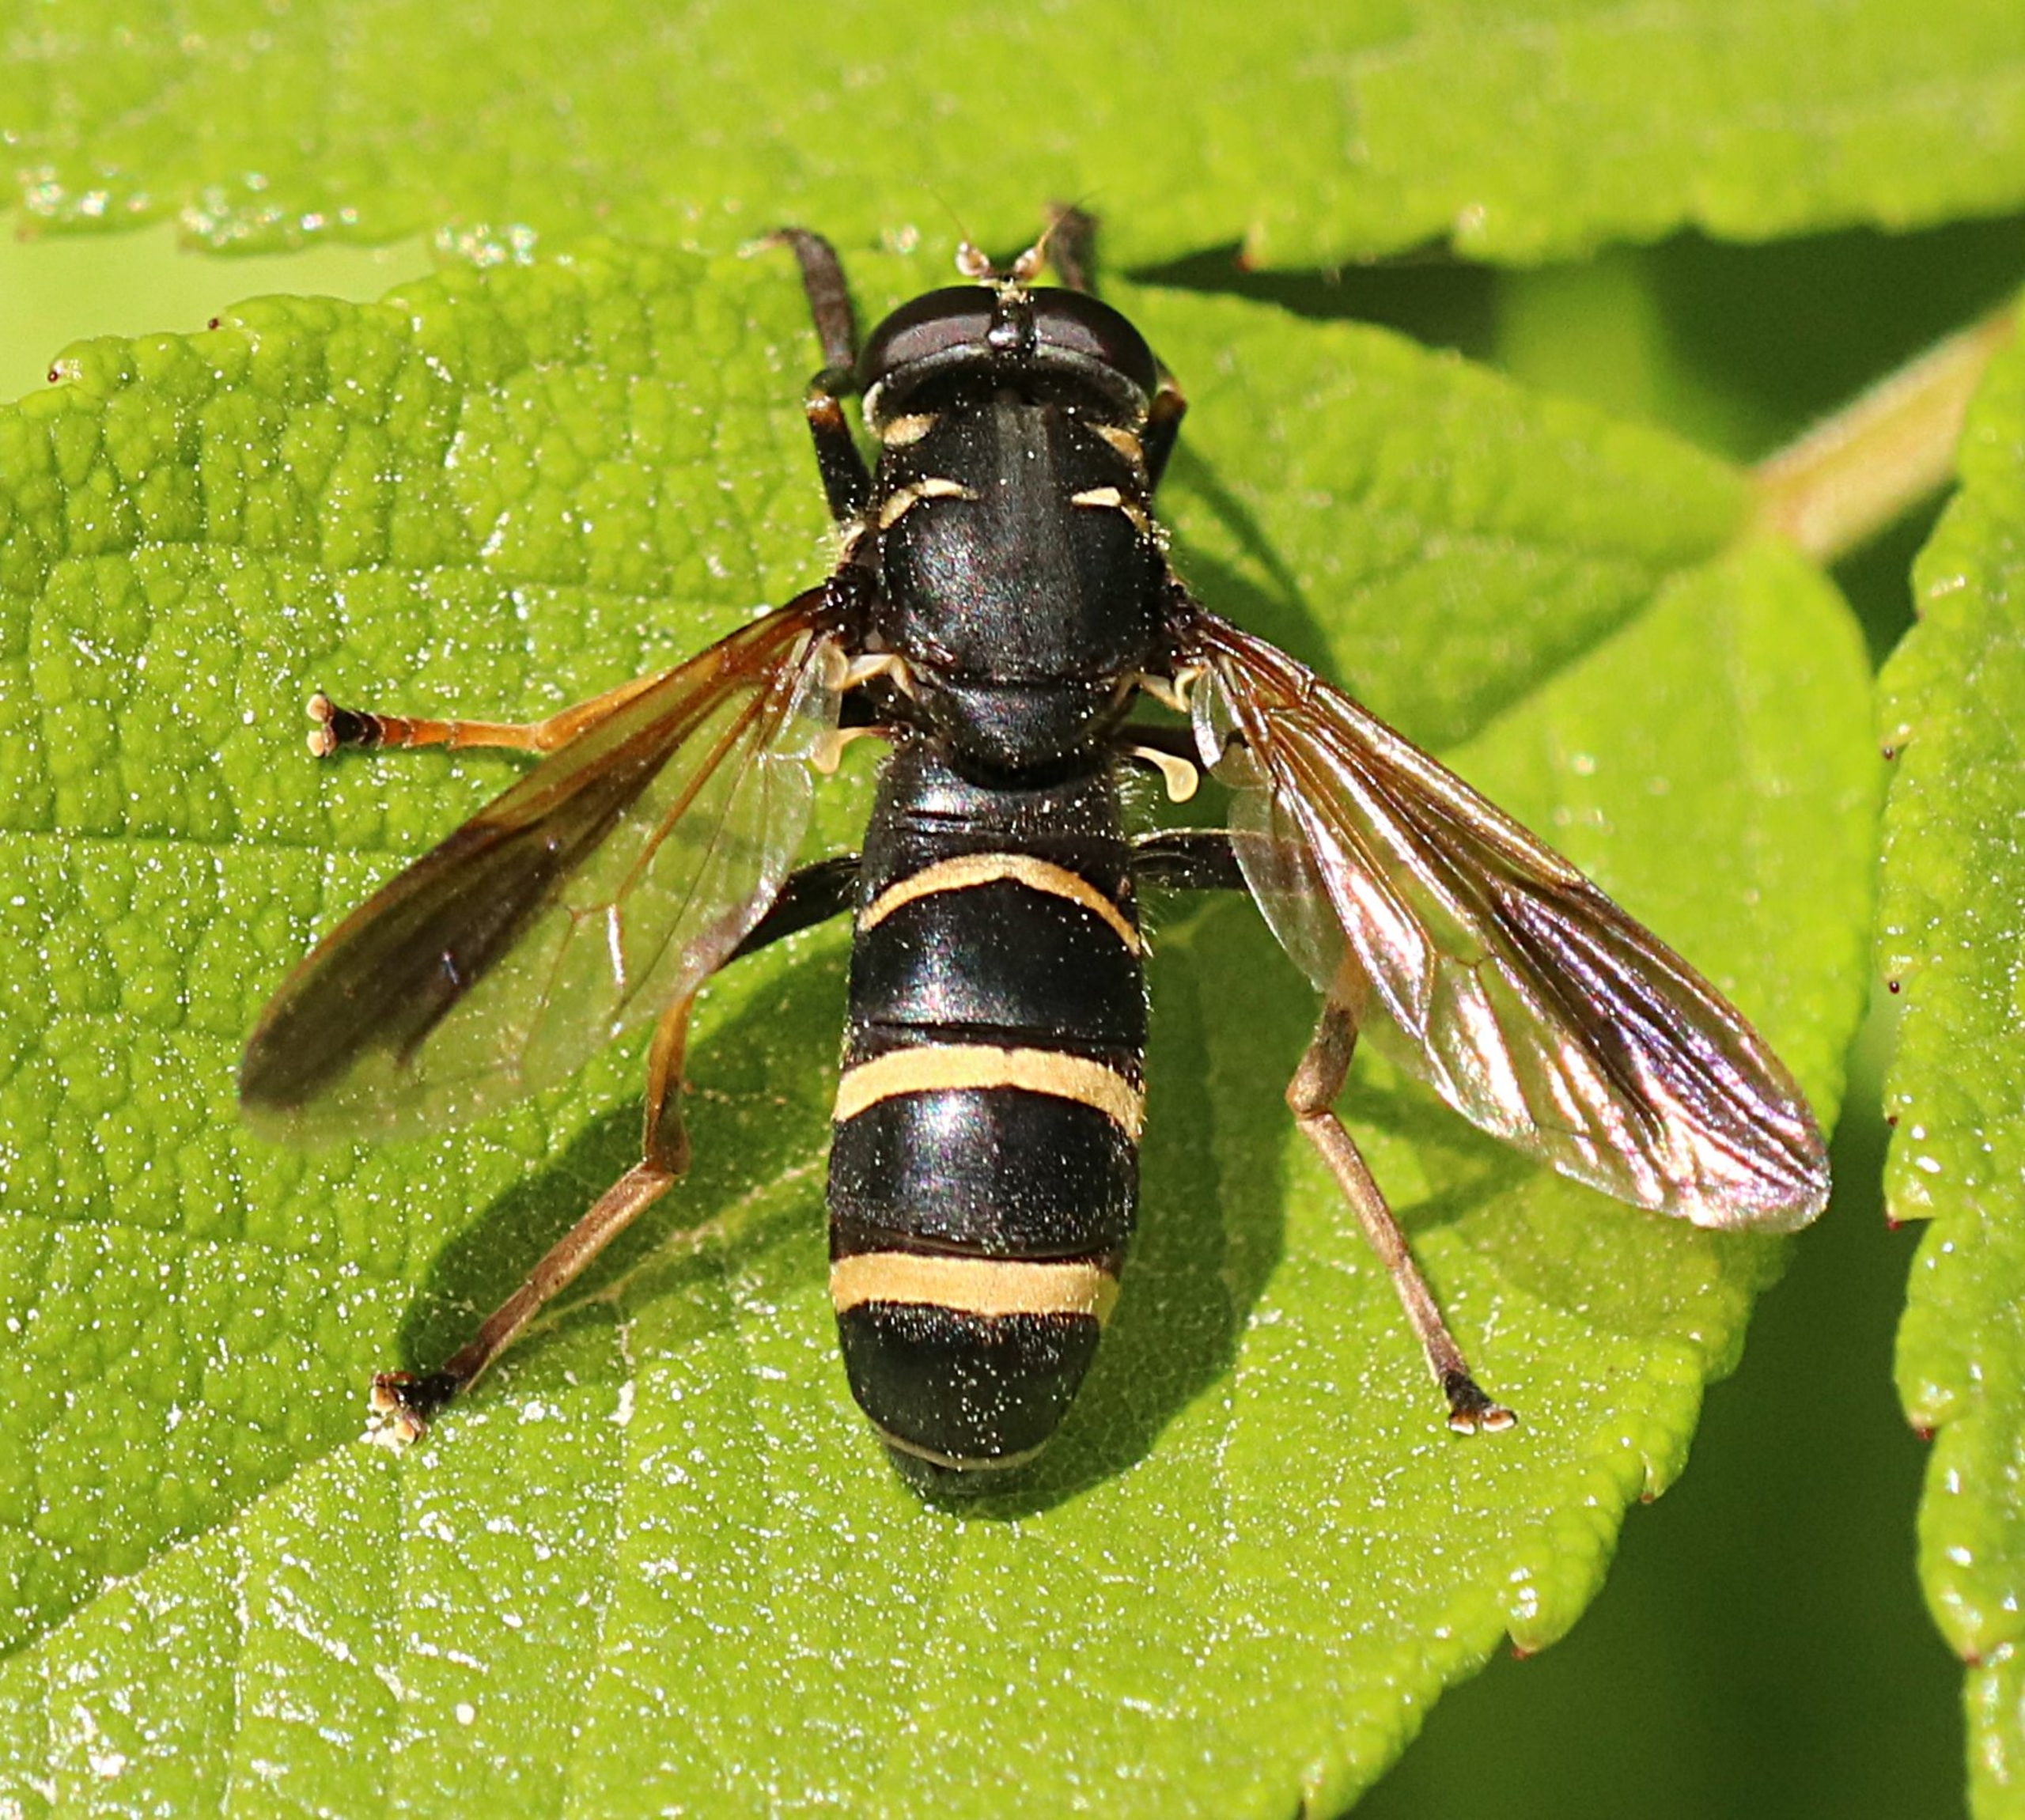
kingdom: Animalia
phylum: Arthropoda
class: Insecta
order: Diptera
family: Syrphidae
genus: Temnostoma
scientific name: Temnostoma bombylans
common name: Sort vedsvirreflue
